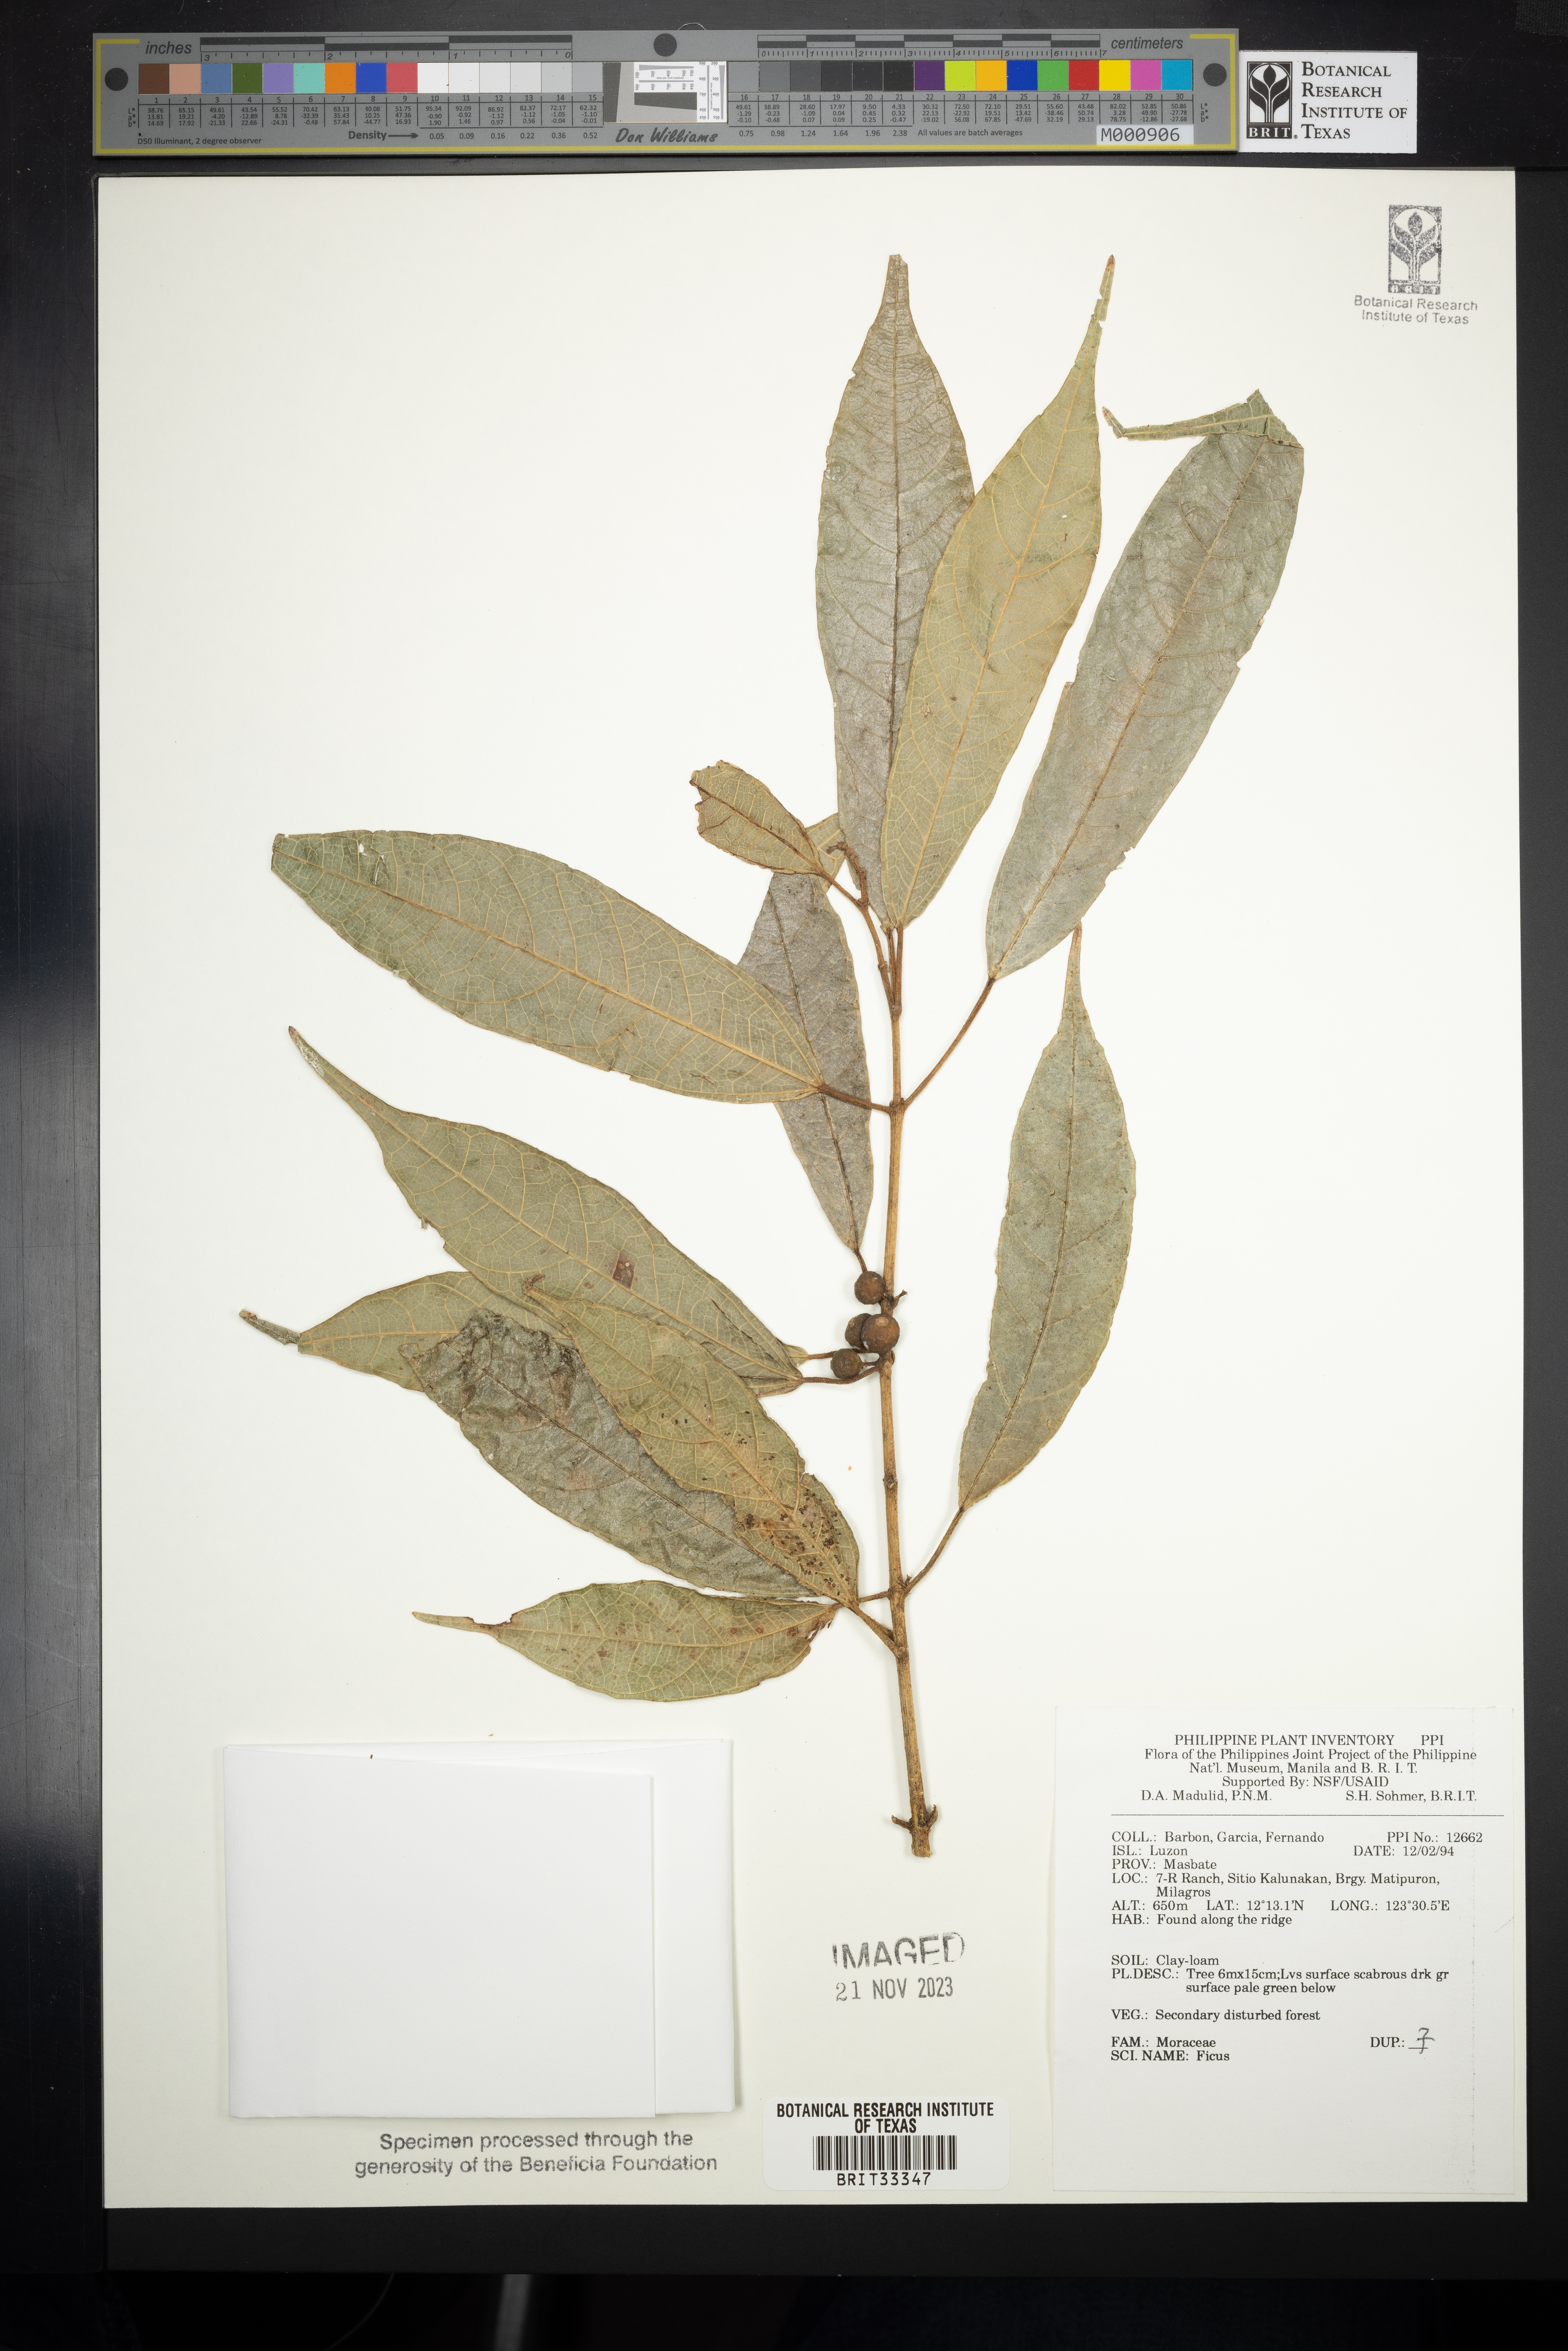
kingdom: Plantae
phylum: Tracheophyta
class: Magnoliopsida
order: Rosales
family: Moraceae
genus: Ficus
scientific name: Ficus
